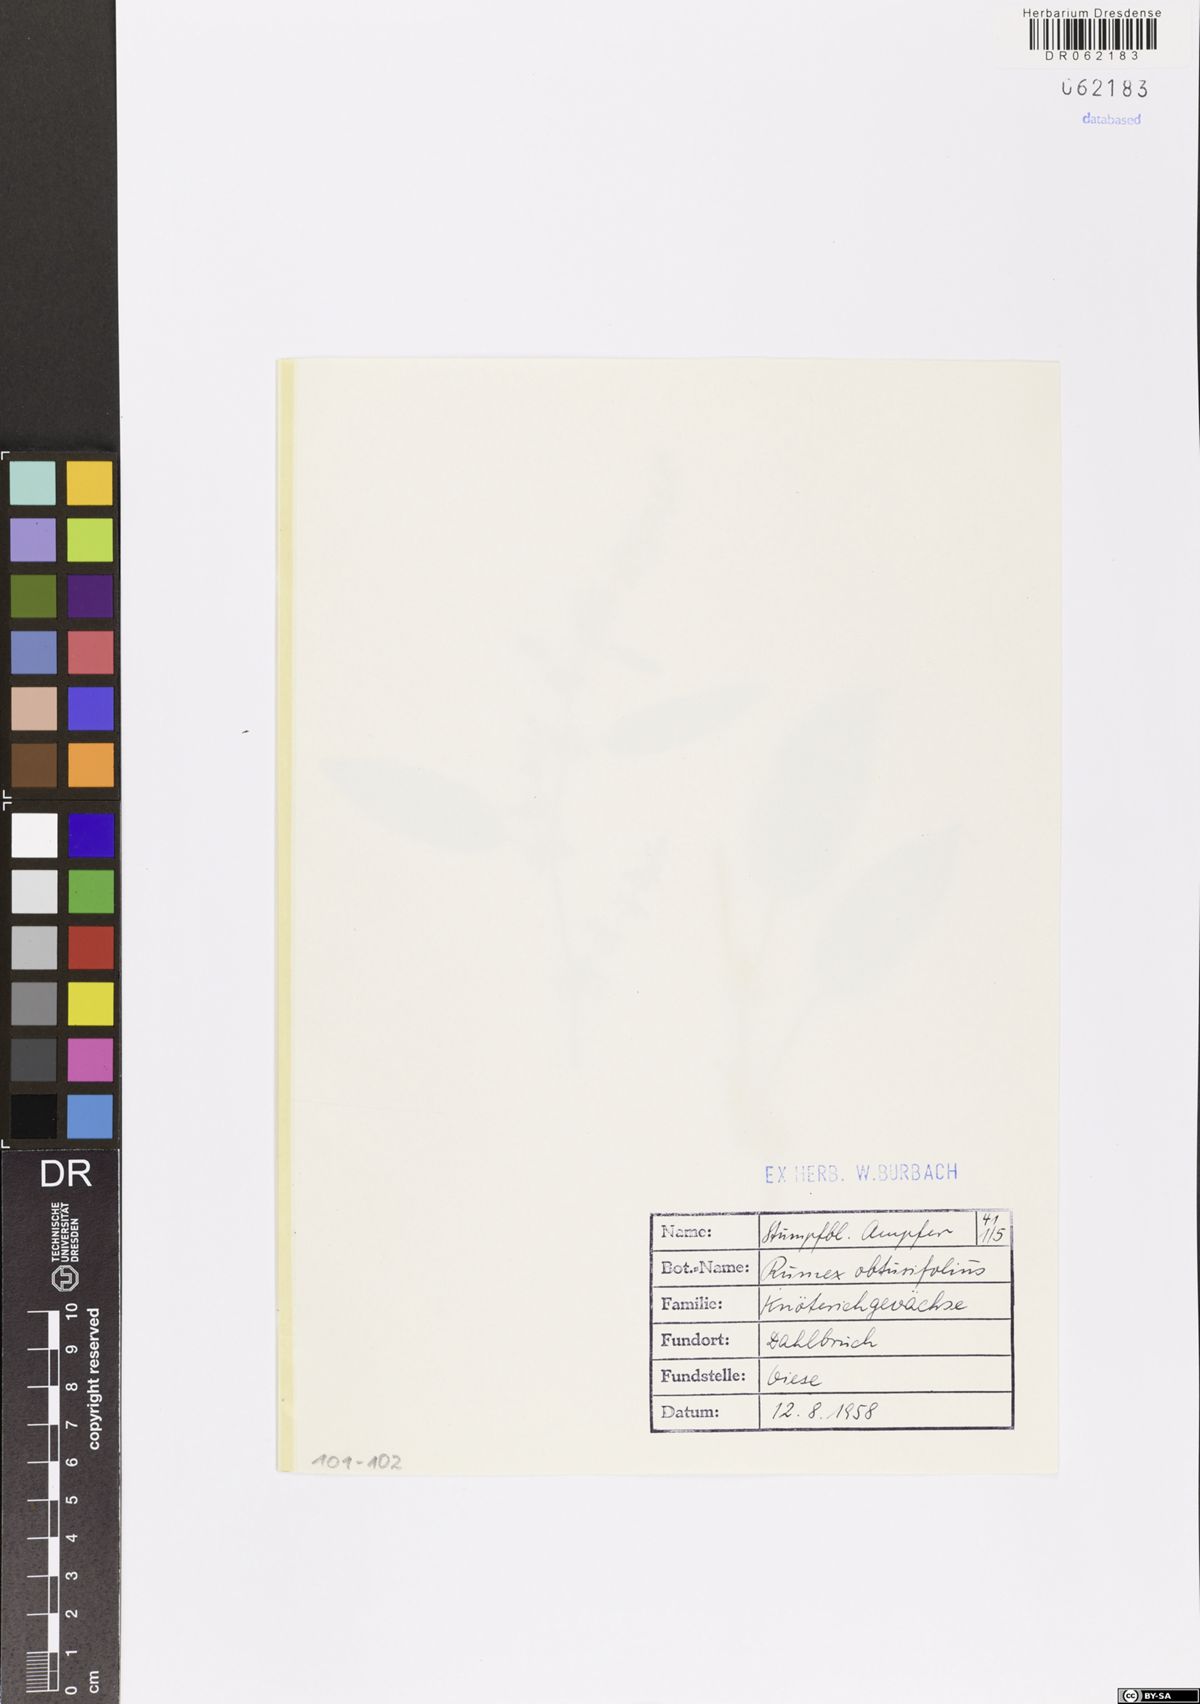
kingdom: Plantae
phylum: Tracheophyta
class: Magnoliopsida
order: Caryophyllales
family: Polygonaceae
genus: Rumex
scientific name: Rumex obtusifolius
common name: Bitter dock
